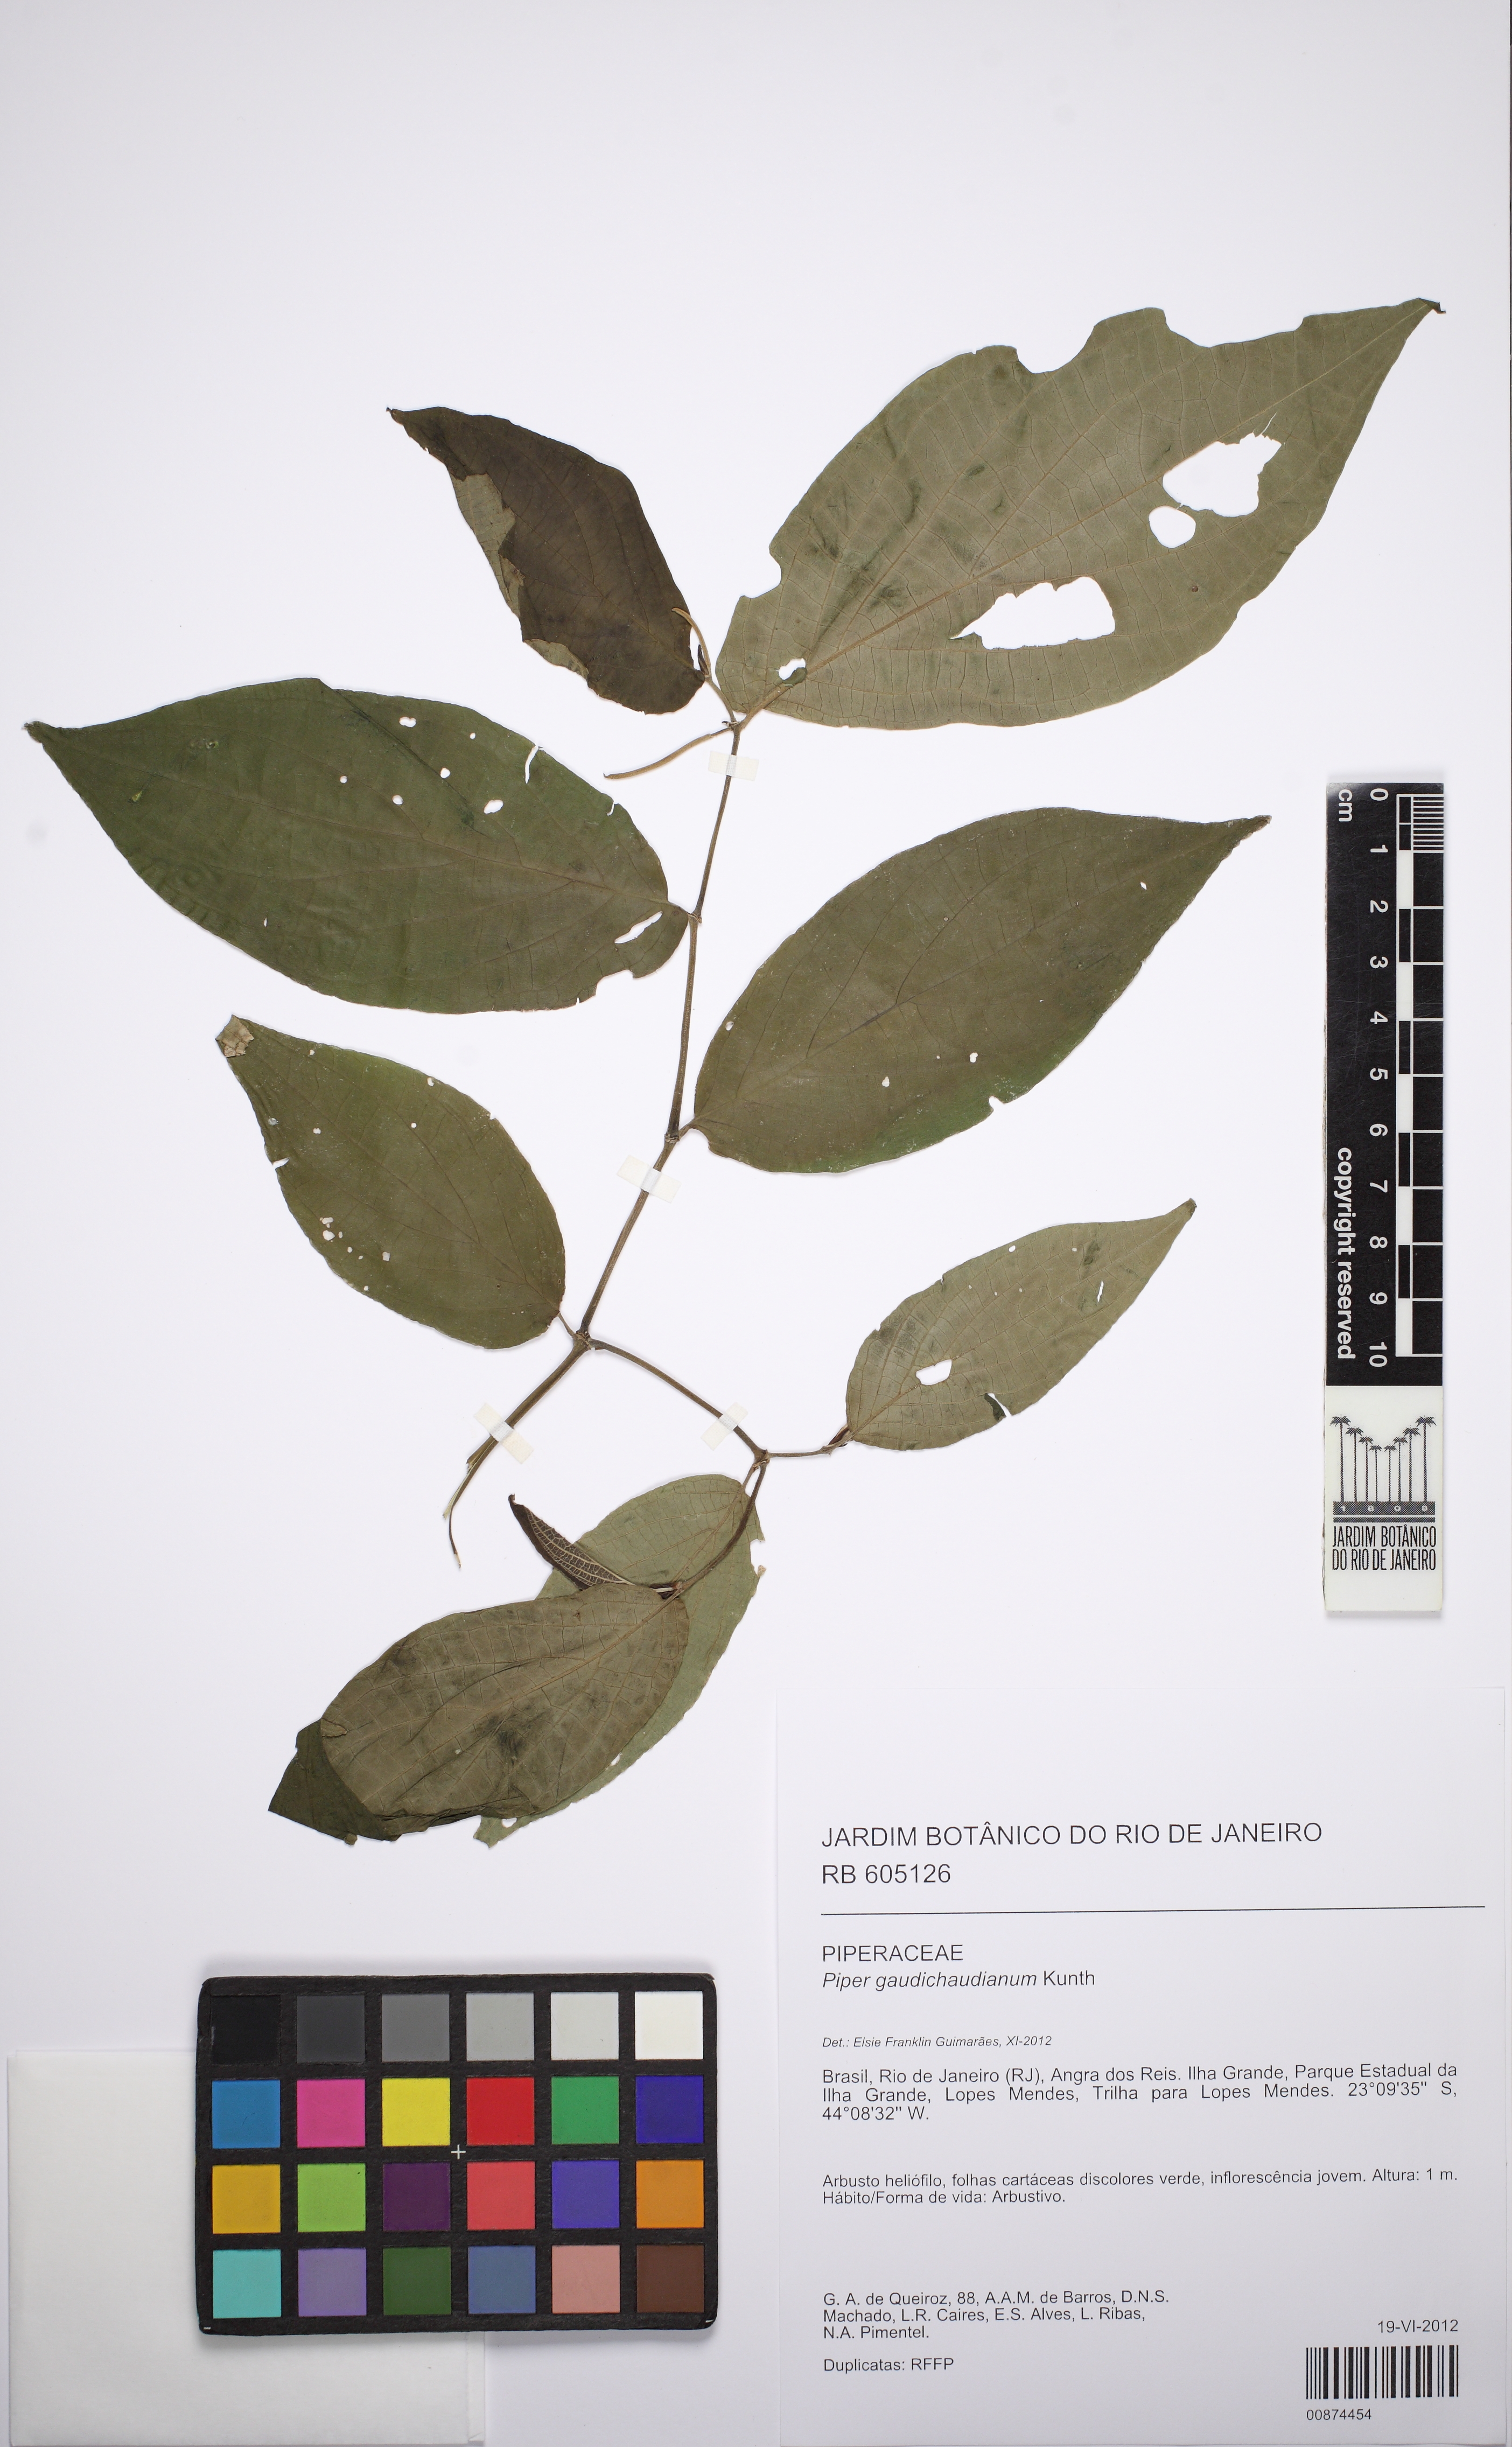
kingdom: Plantae
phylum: Tracheophyta
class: Magnoliopsida
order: Piperales
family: Piperaceae
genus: Piper
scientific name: Piper gaudichaudianum
